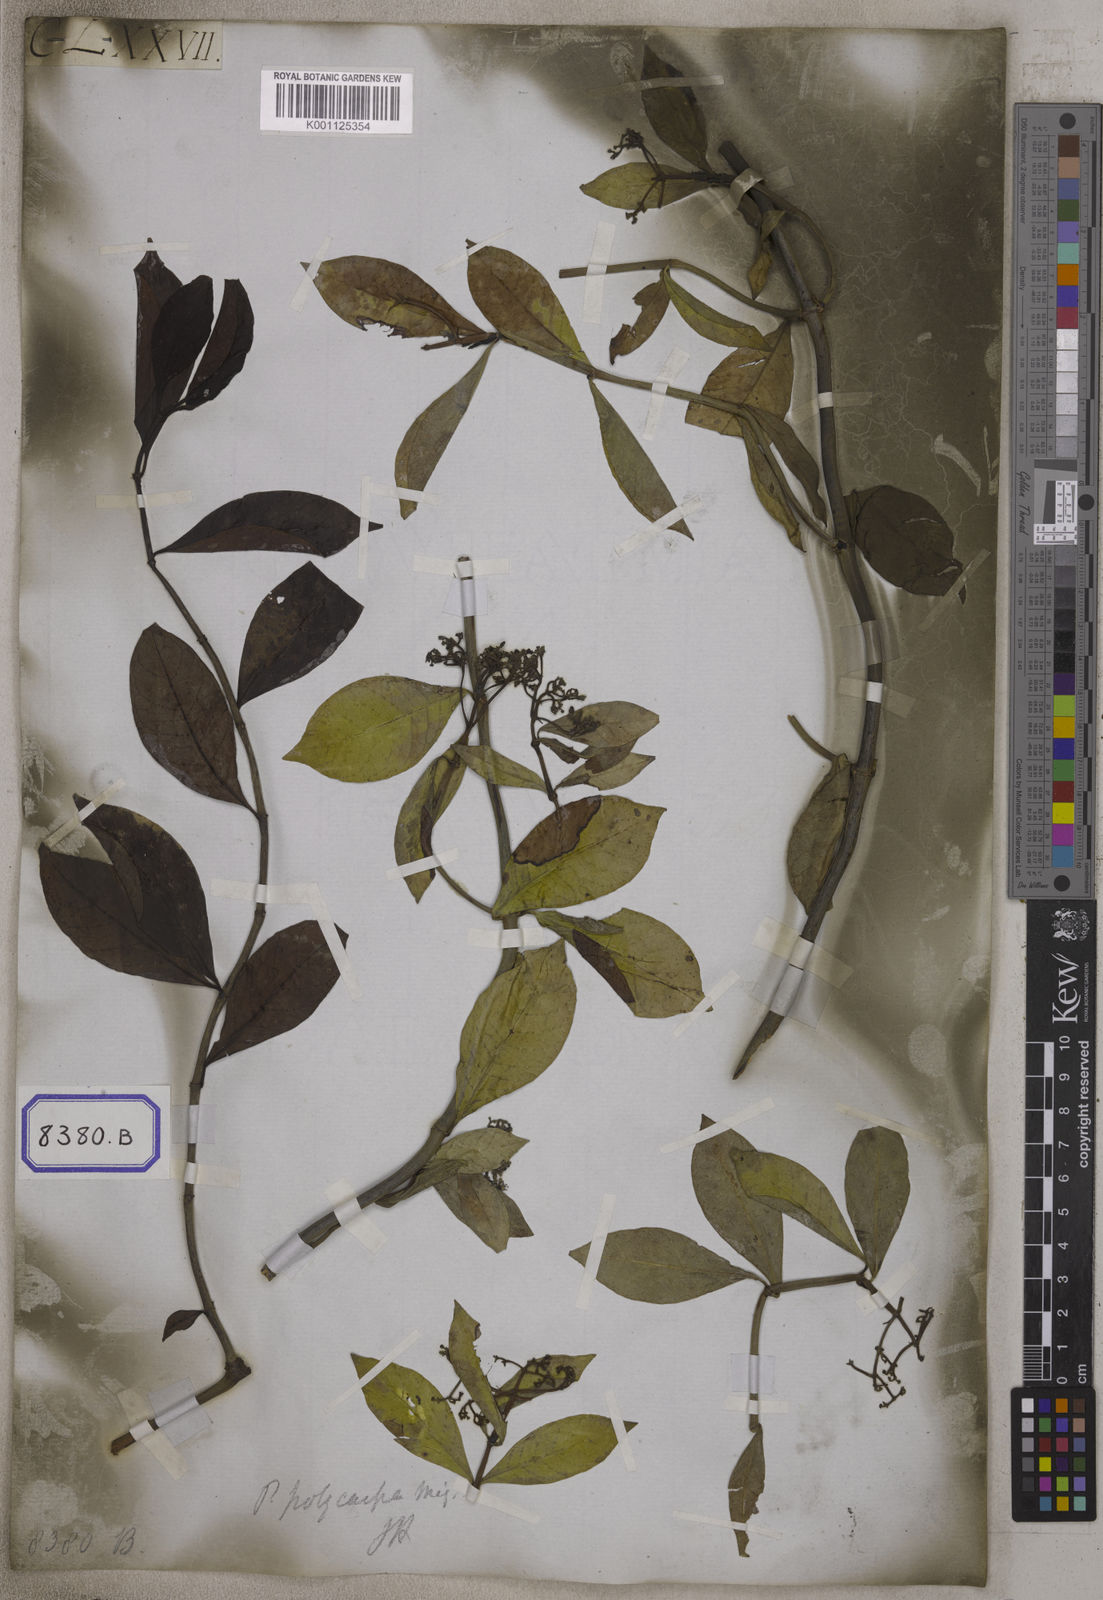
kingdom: Plantae
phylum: Tracheophyta
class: Magnoliopsida
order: Gentianales
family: Rubiaceae
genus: Psychotria
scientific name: Psychotria
